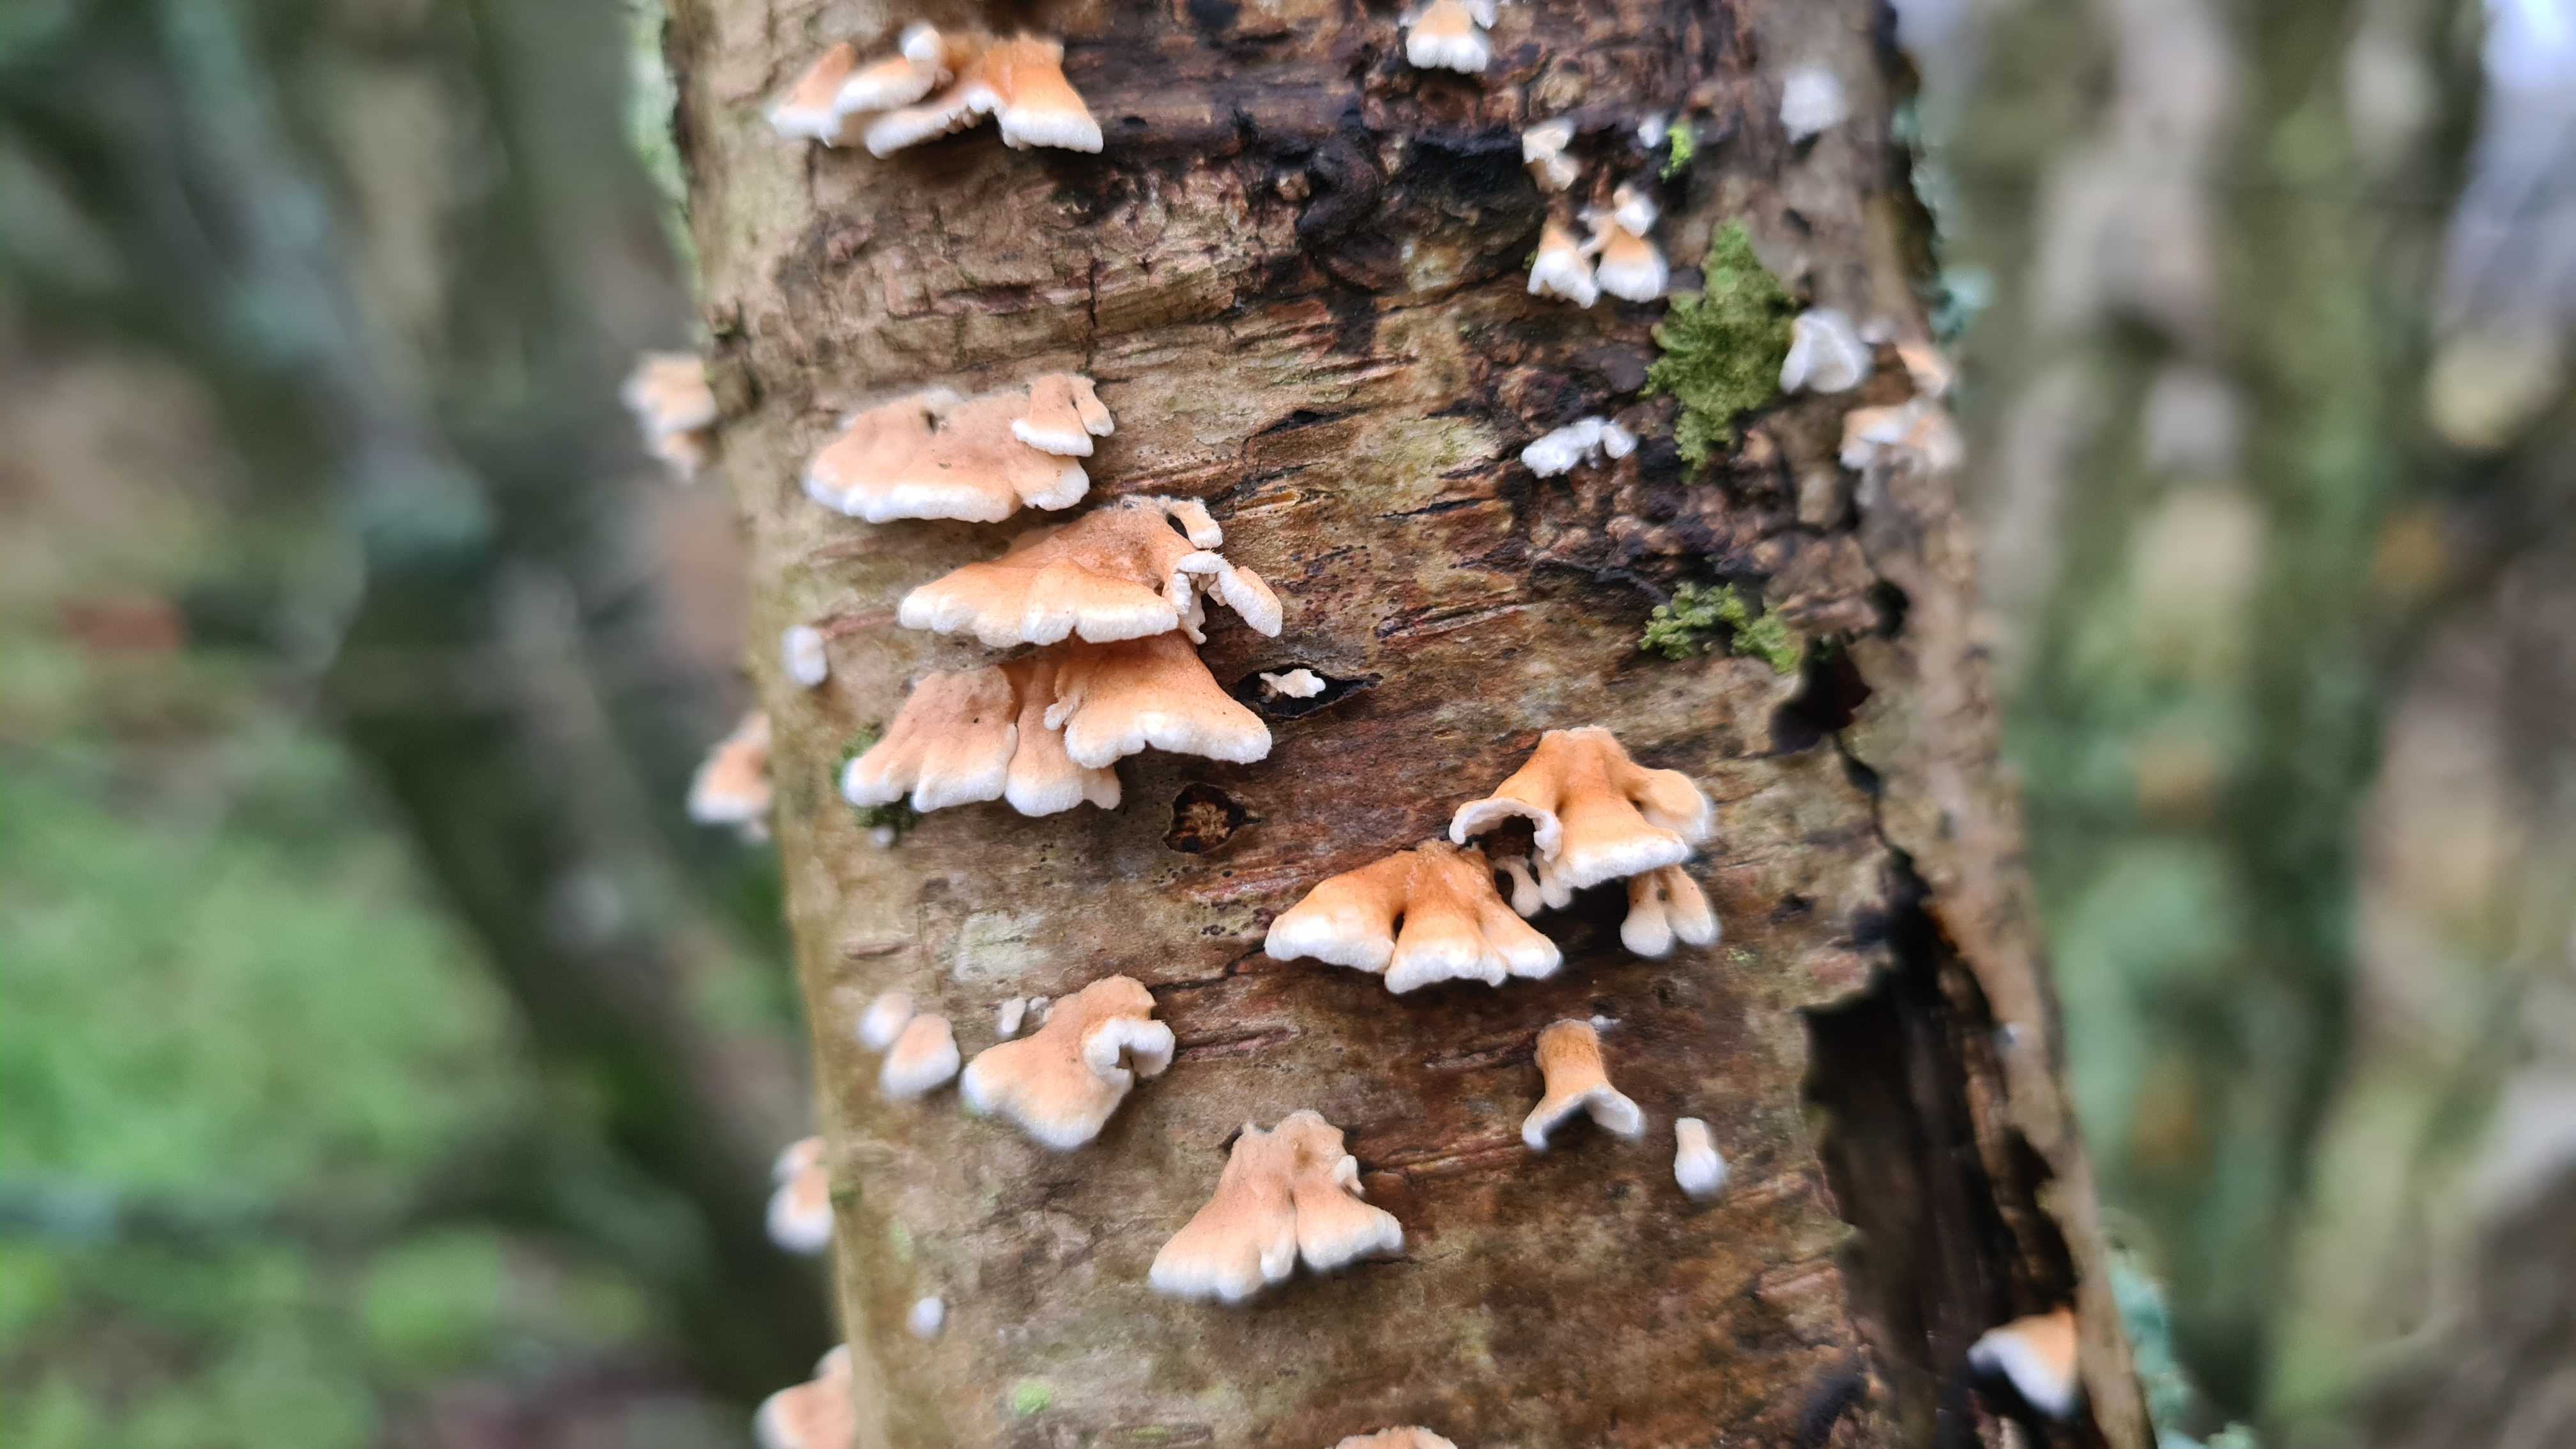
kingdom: Fungi
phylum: Basidiomycota
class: Agaricomycetes
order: Amylocorticiales
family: Amylocorticiaceae
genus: Plicaturopsis
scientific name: Plicaturopsis crispa
